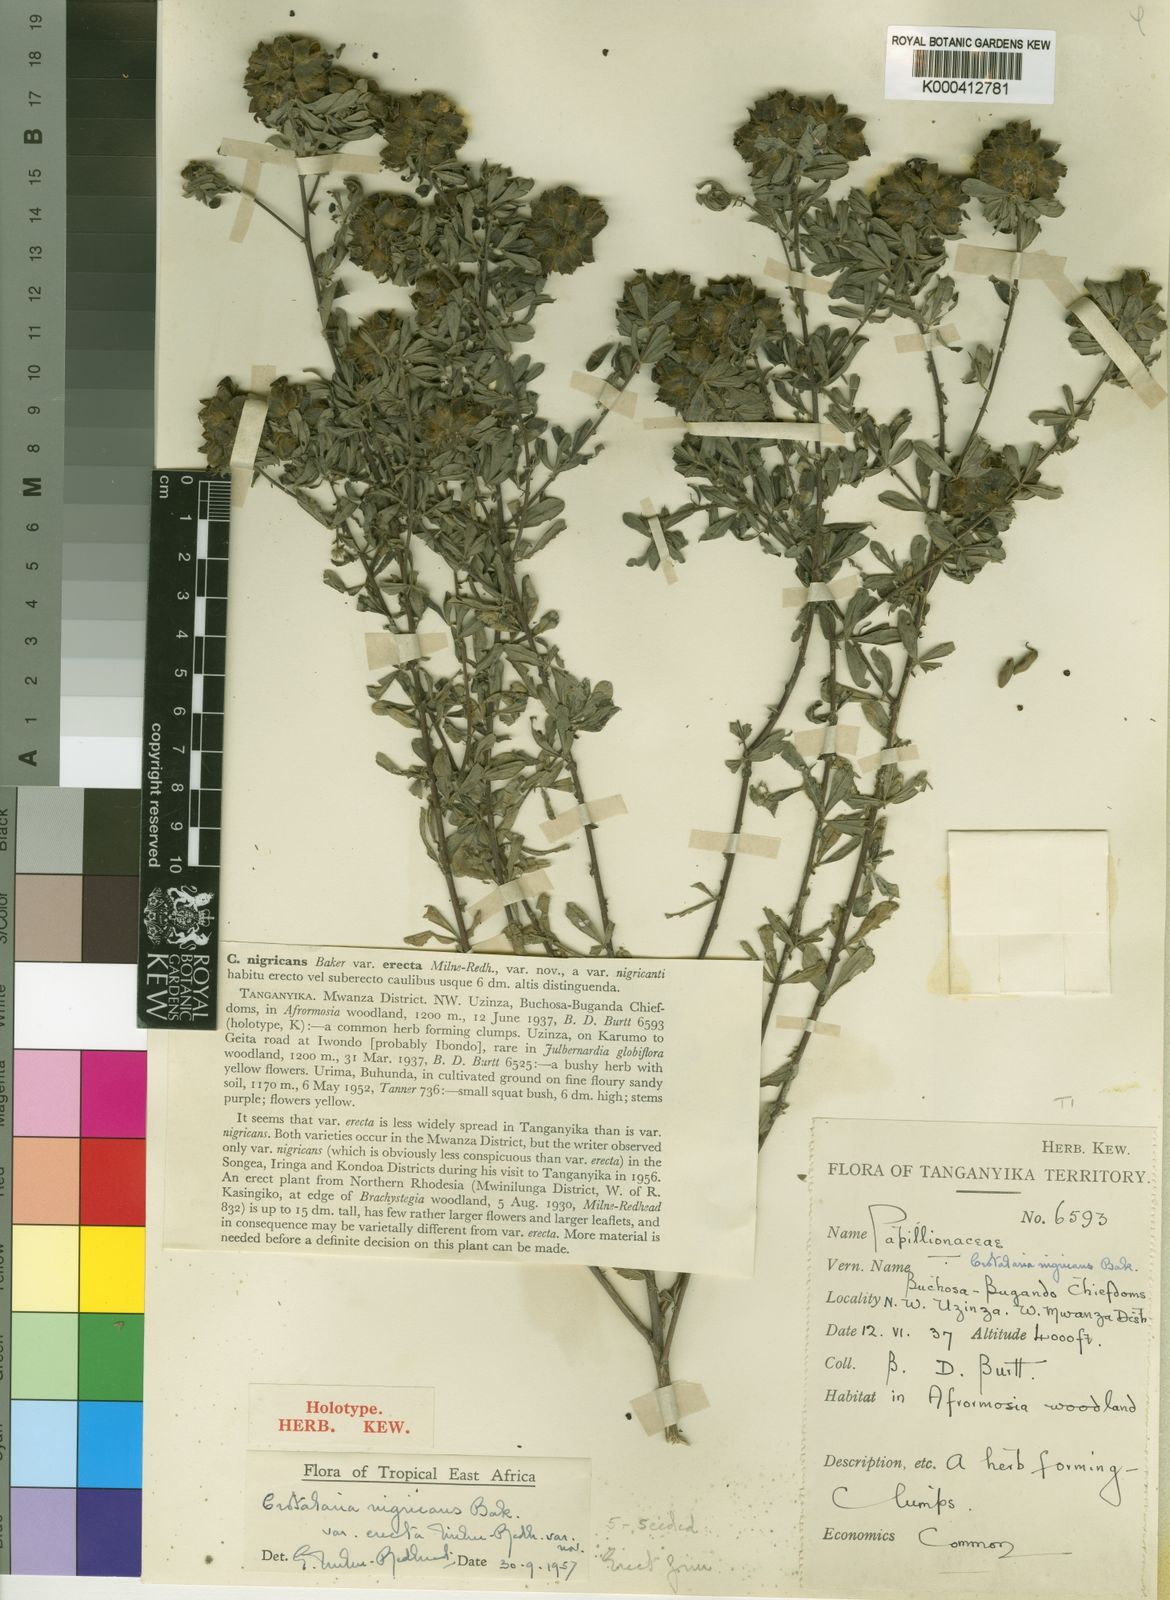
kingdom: Plantae
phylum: Tracheophyta
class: Magnoliopsida
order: Fabales
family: Fabaceae
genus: Crotalaria
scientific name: Crotalaria nigricans
